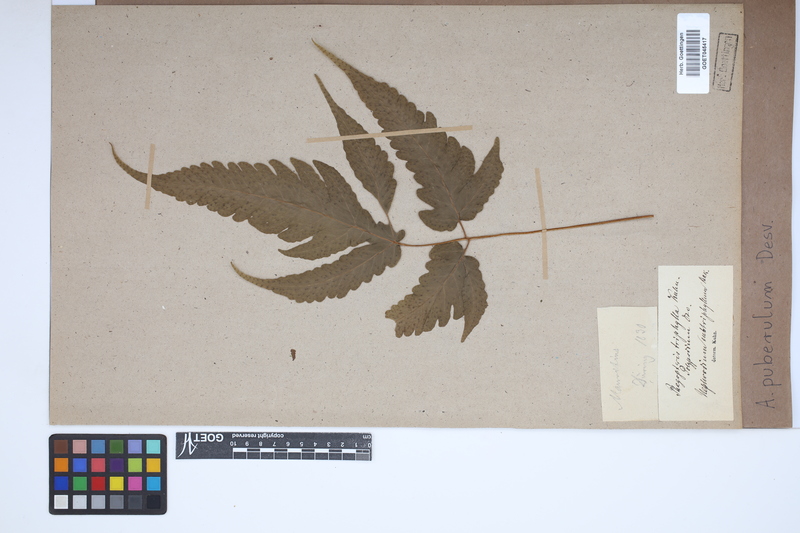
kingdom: Plantae
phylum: Tracheophyta
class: Polypodiopsida
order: Polypodiales
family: Tectariaceae
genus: Tectaria
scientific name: Tectaria puberula
